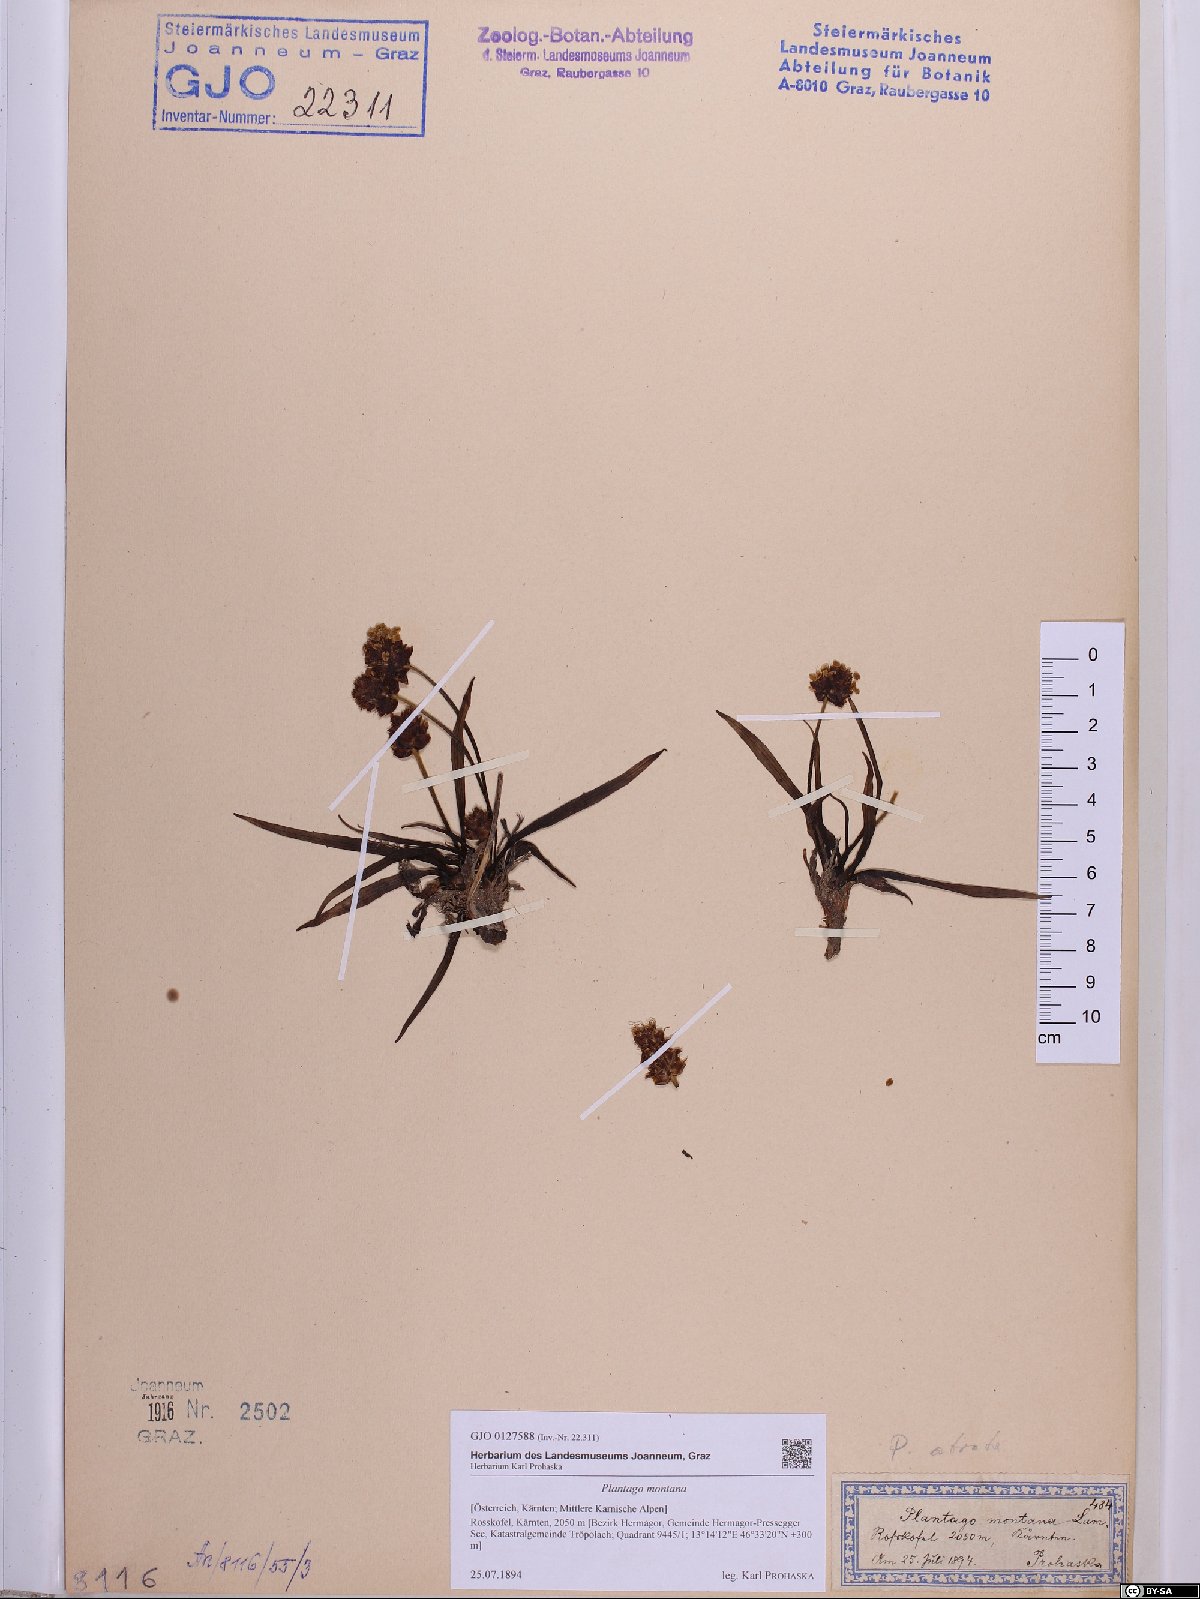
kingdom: Plantae
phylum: Tracheophyta
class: Magnoliopsida
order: Lamiales
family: Plantaginaceae
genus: Plantago
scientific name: Plantago atrata
